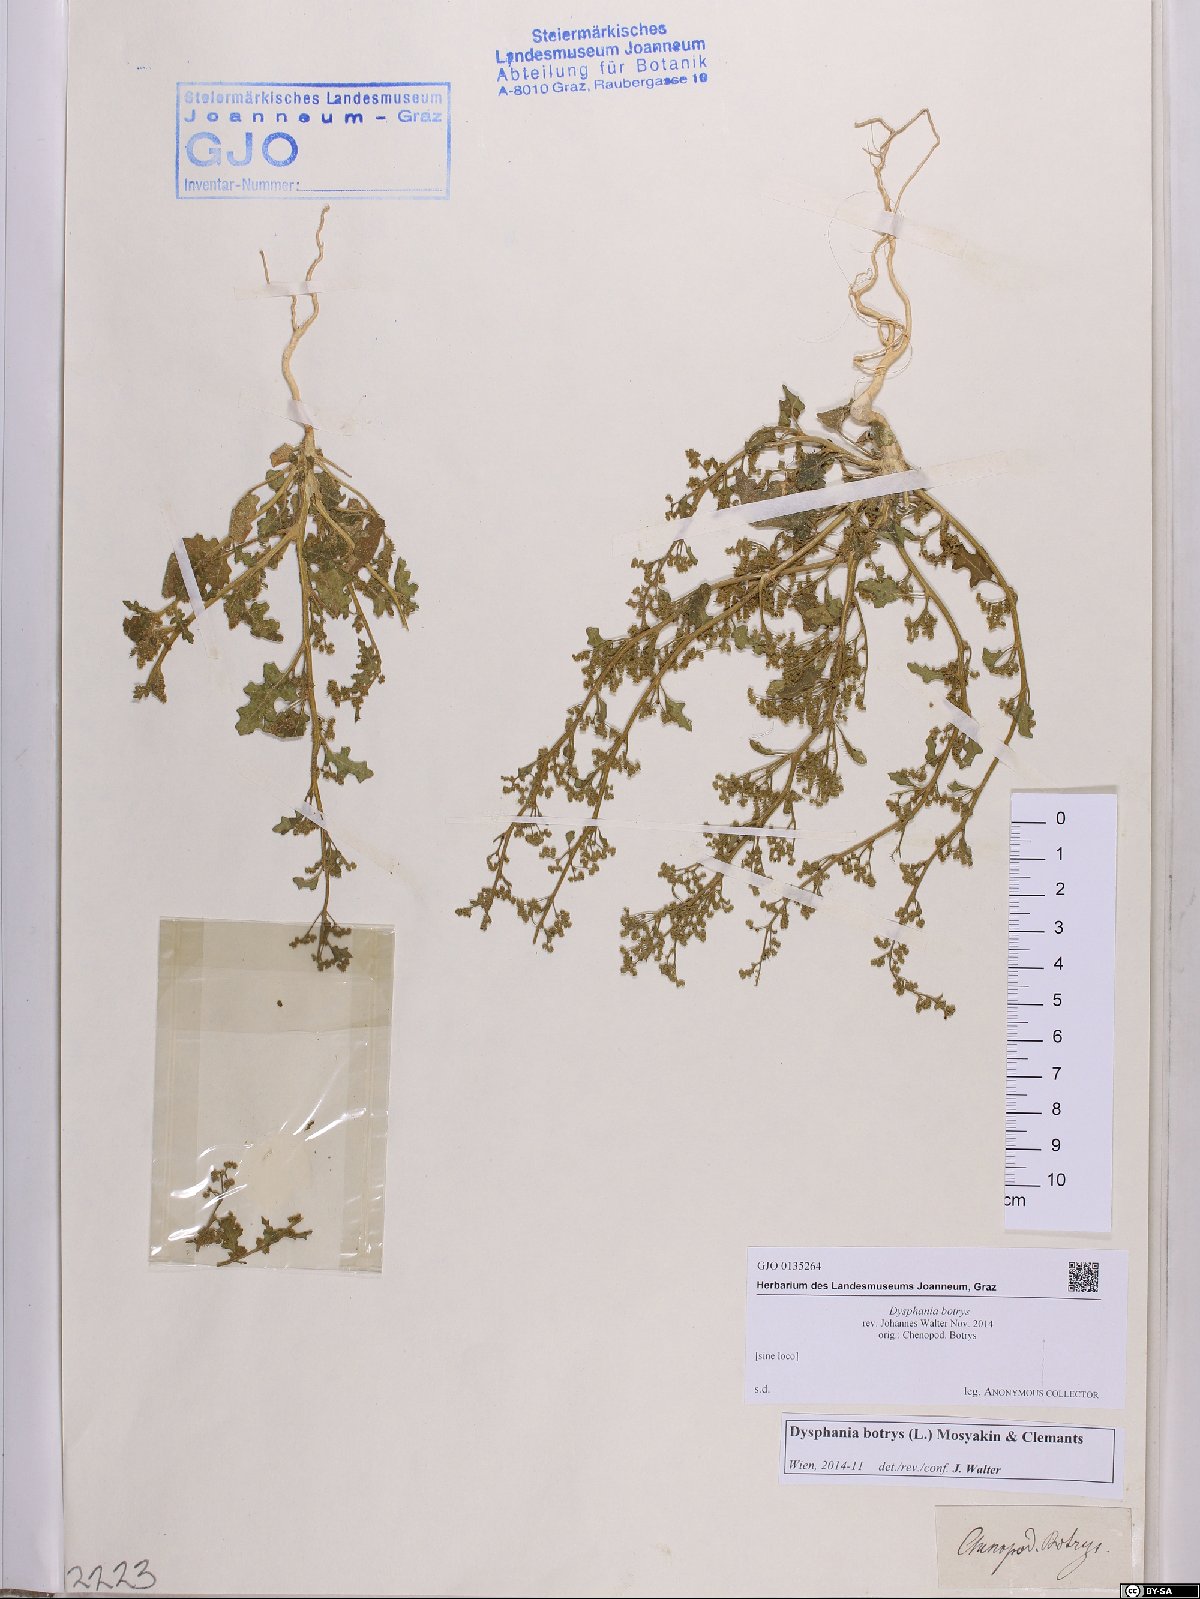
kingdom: Plantae
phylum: Tracheophyta
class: Magnoliopsida
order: Caryophyllales
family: Amaranthaceae
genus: Dysphania
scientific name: Dysphania botrys
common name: Feather-geranium
